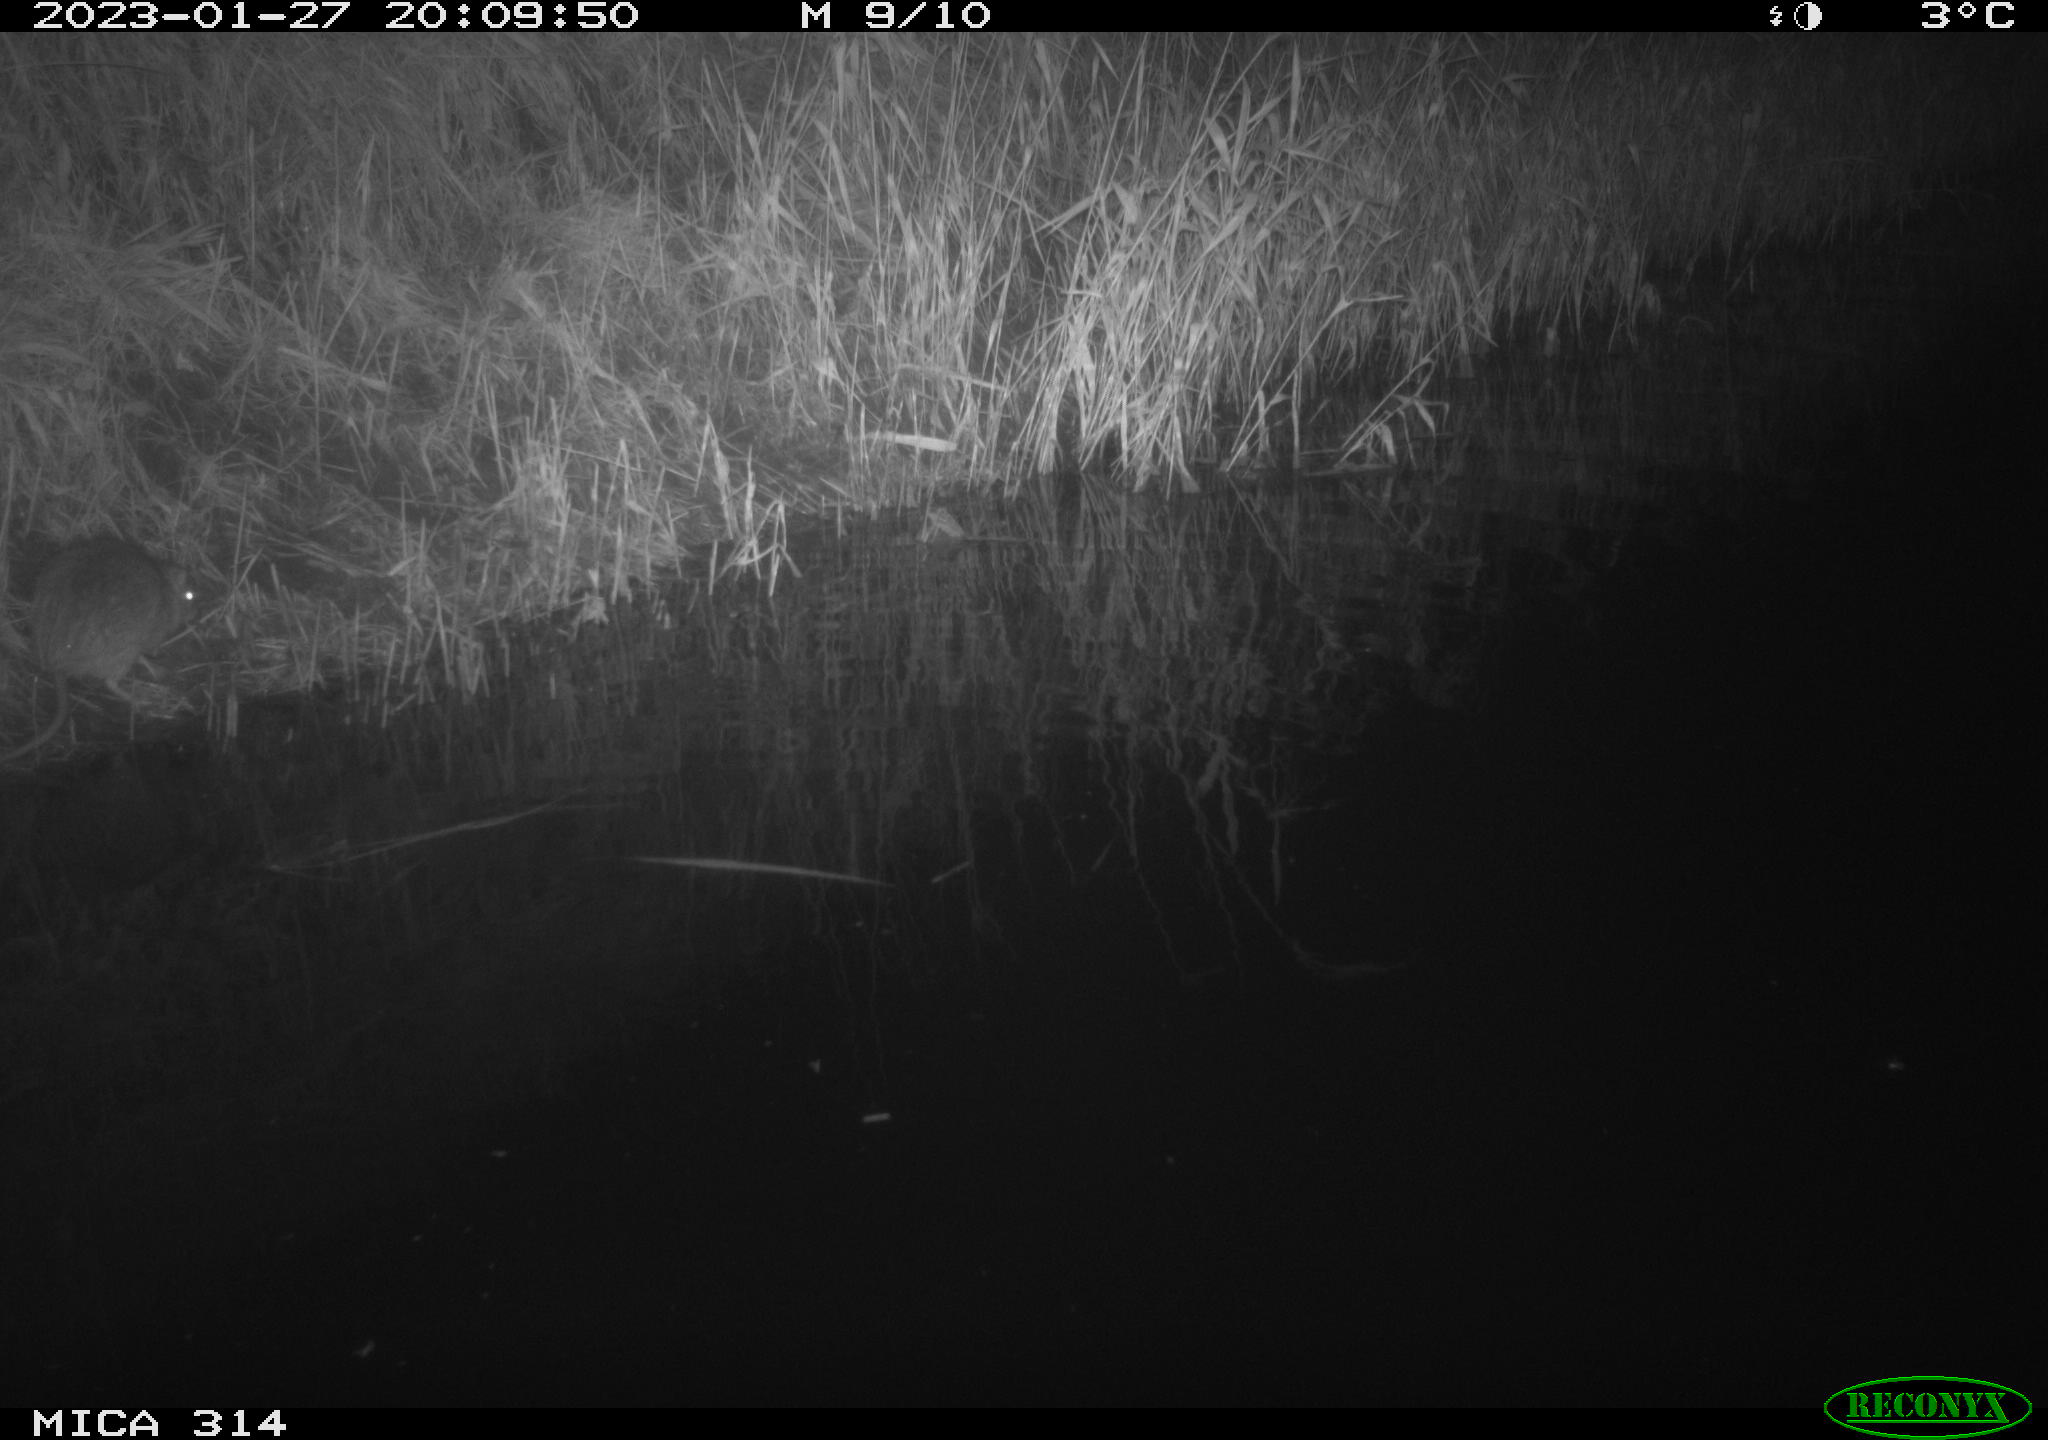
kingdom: Animalia
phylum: Chordata
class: Mammalia
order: Rodentia
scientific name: Rodentia
